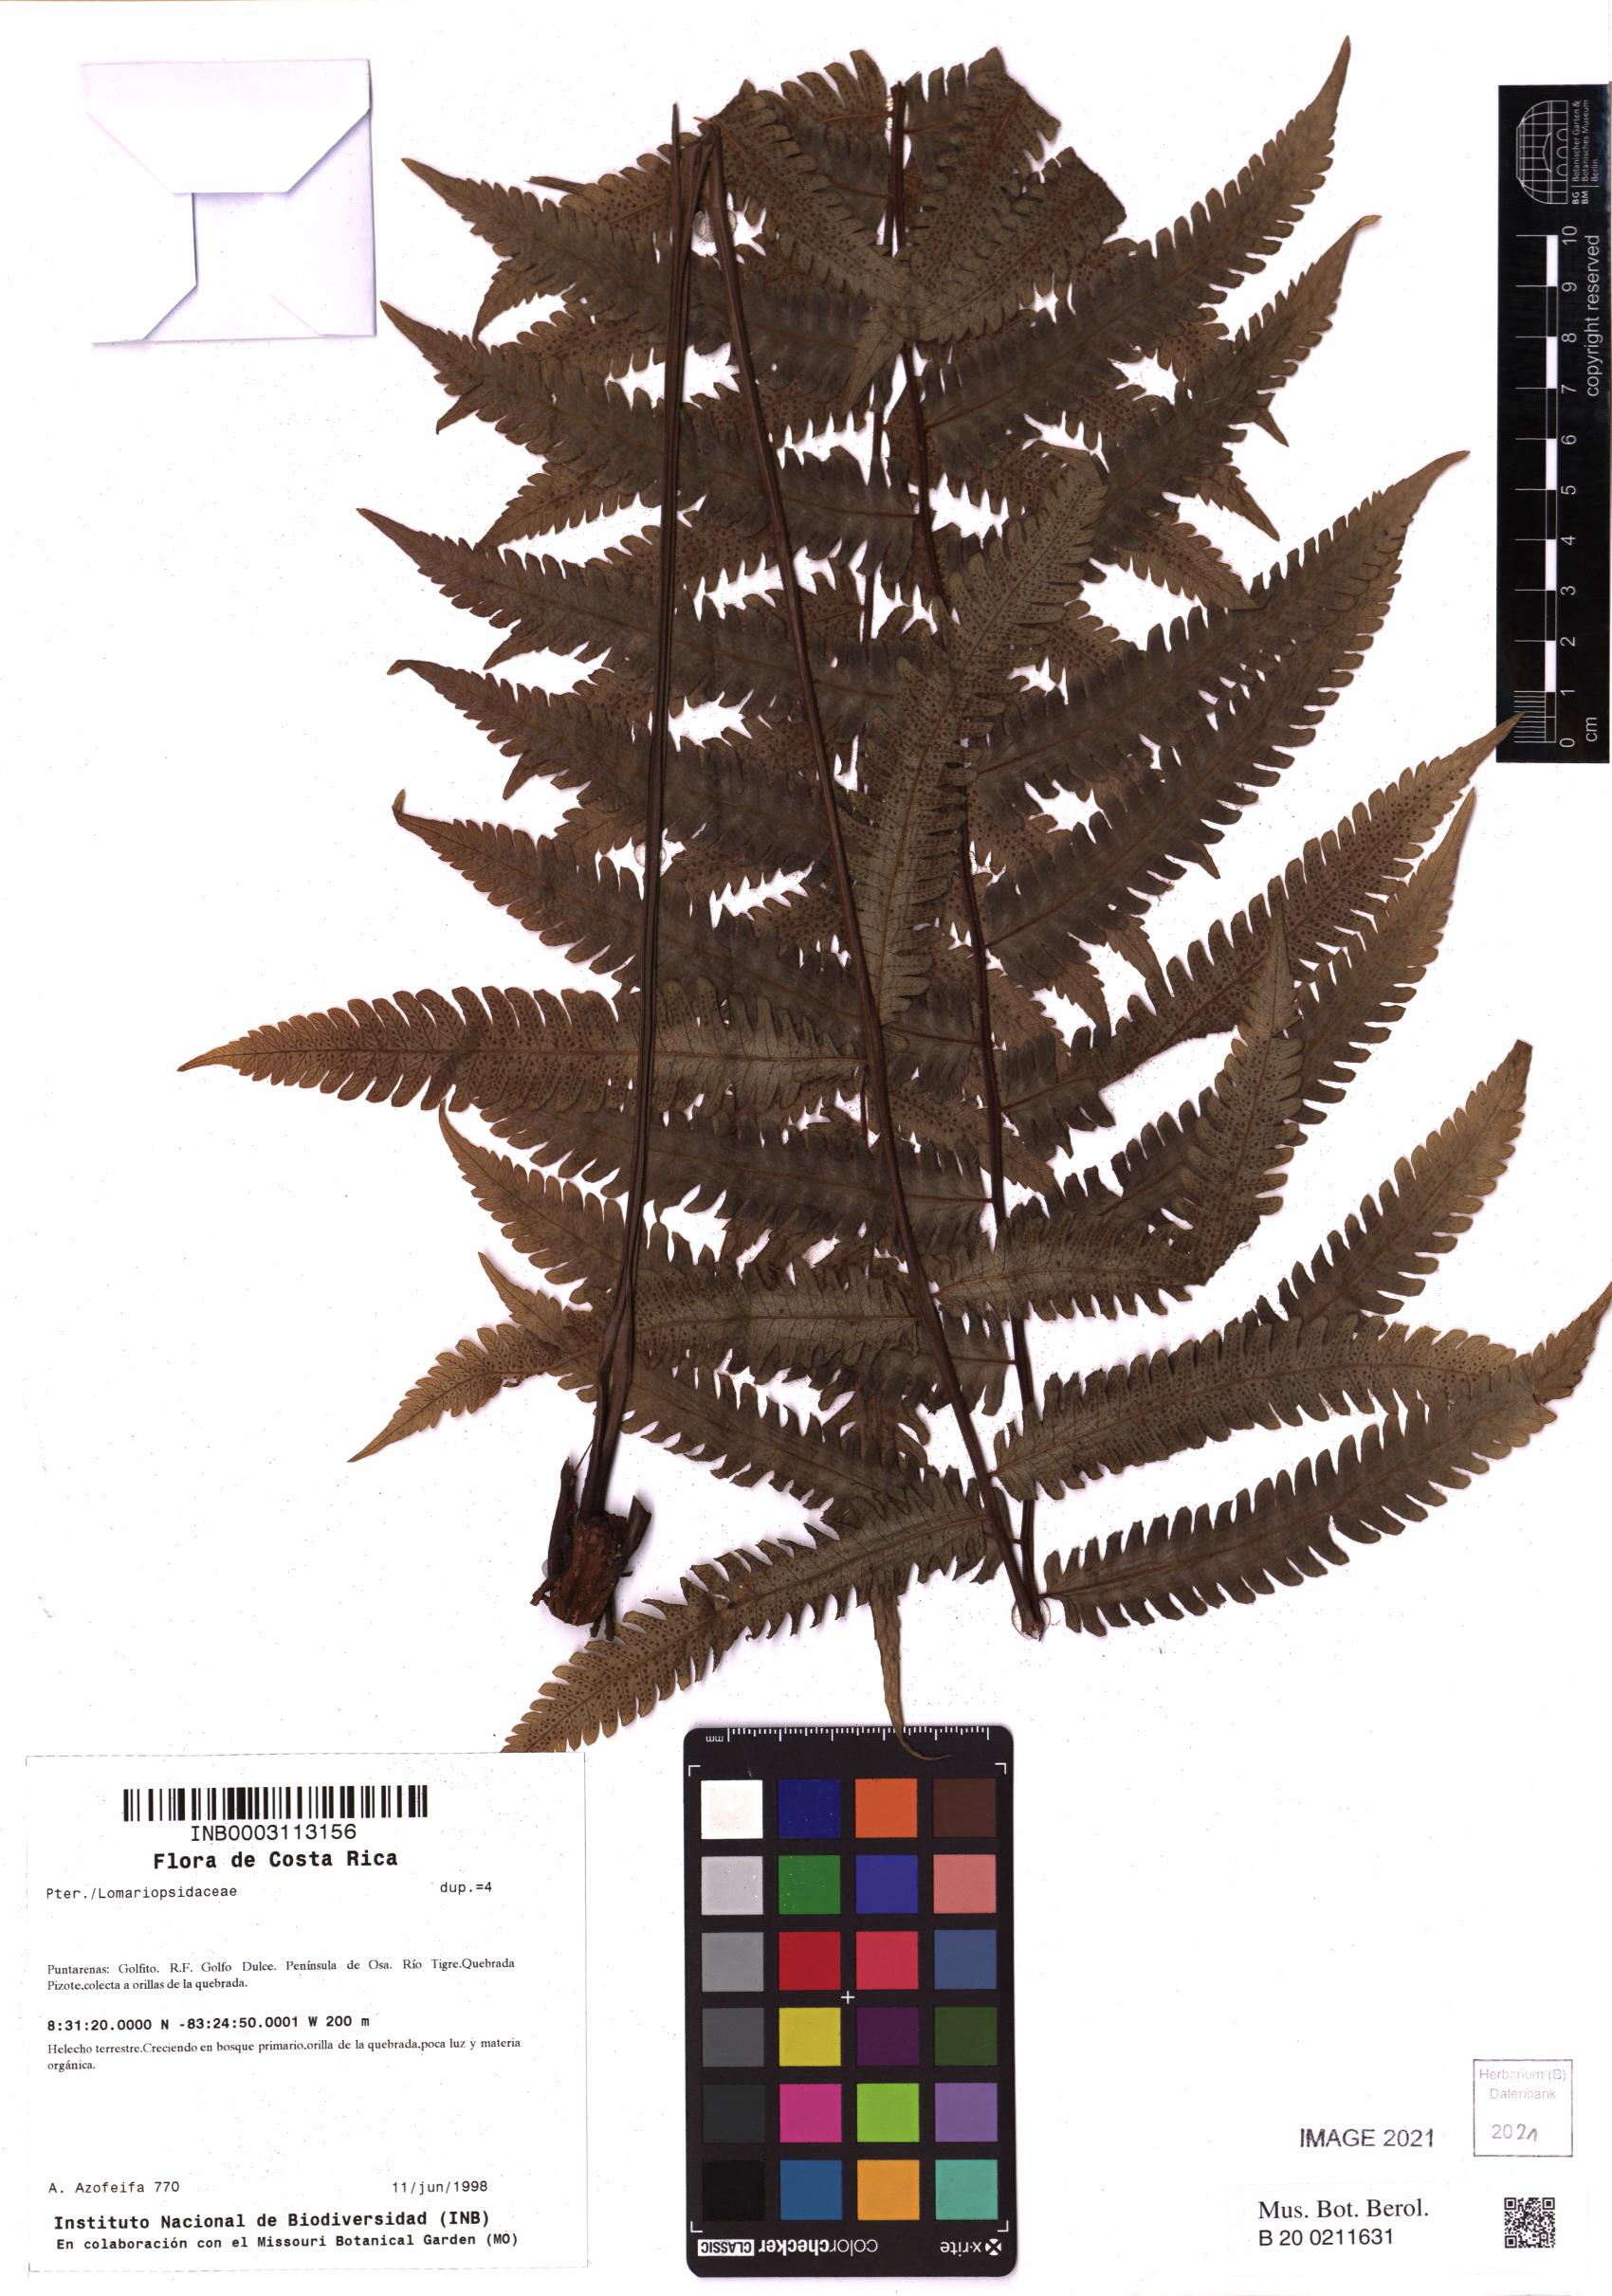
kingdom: Plantae
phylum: Tracheophyta
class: Polypodiopsida
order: Polypodiales
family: Dryopteridaceae
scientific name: Dryopteridaceae
